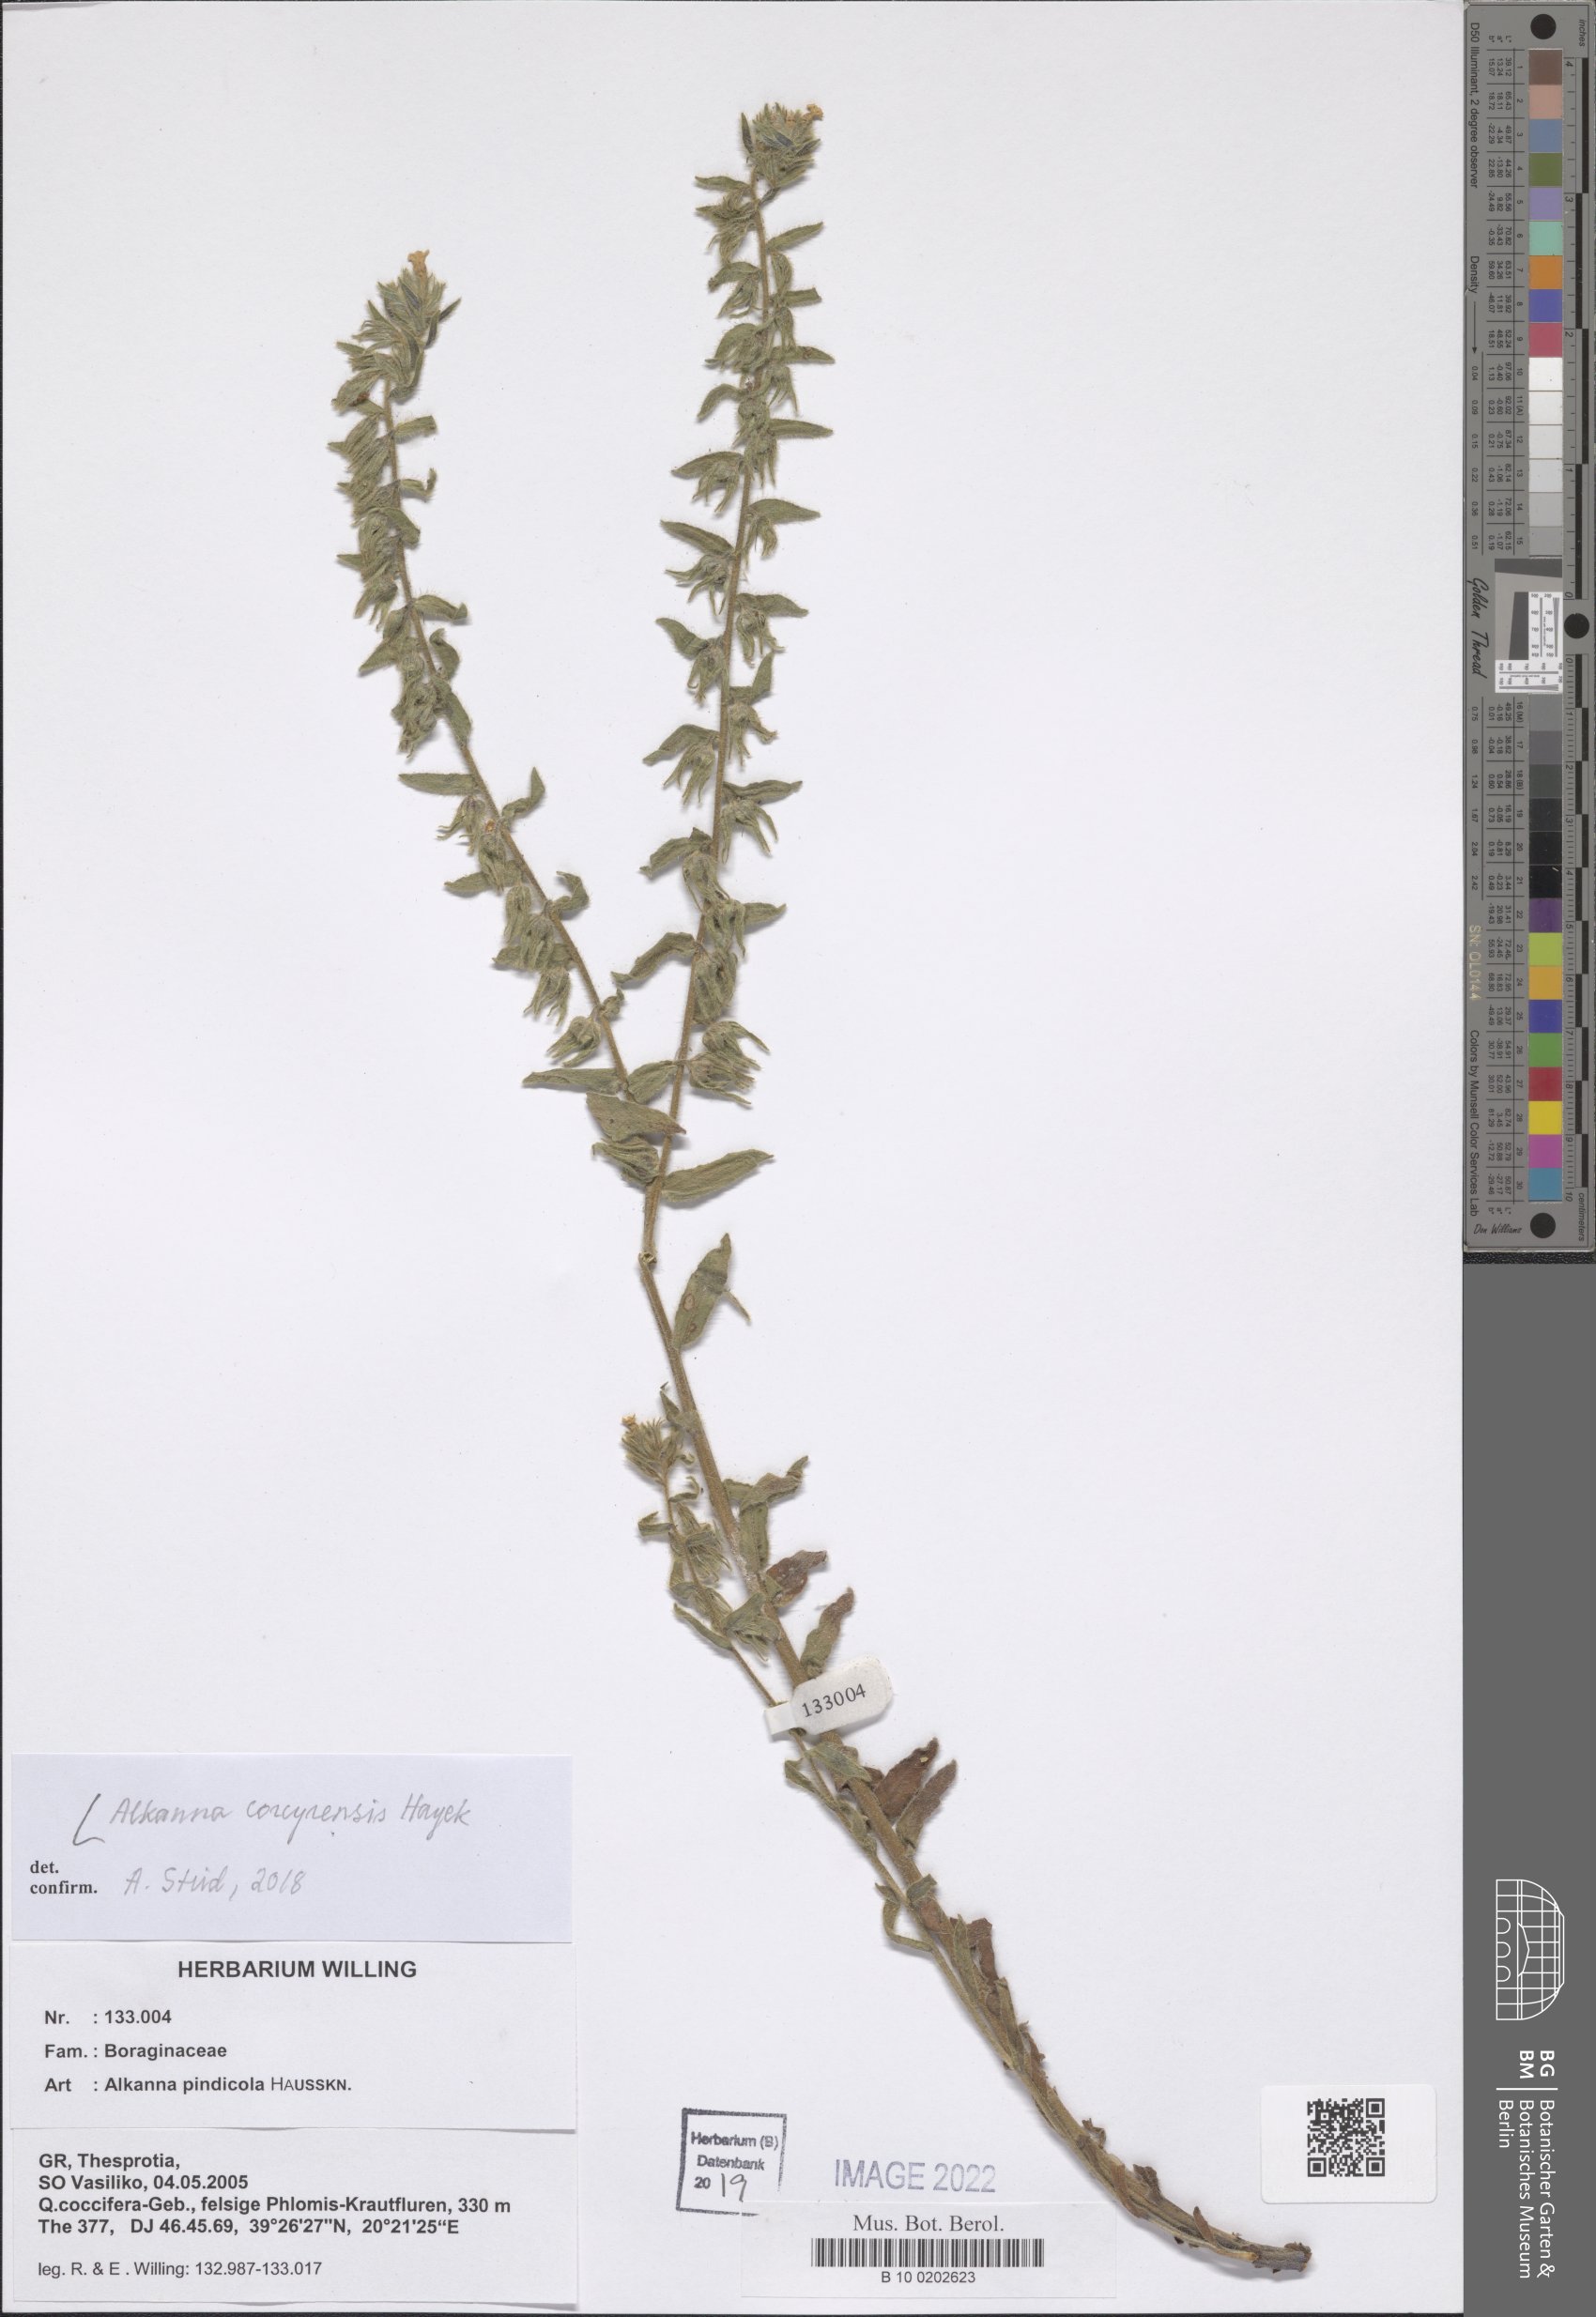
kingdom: Plantae
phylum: Tracheophyta
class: Magnoliopsida
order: Boraginales
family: Boraginaceae
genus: Alkanna
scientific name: Alkanna corcyrensis
